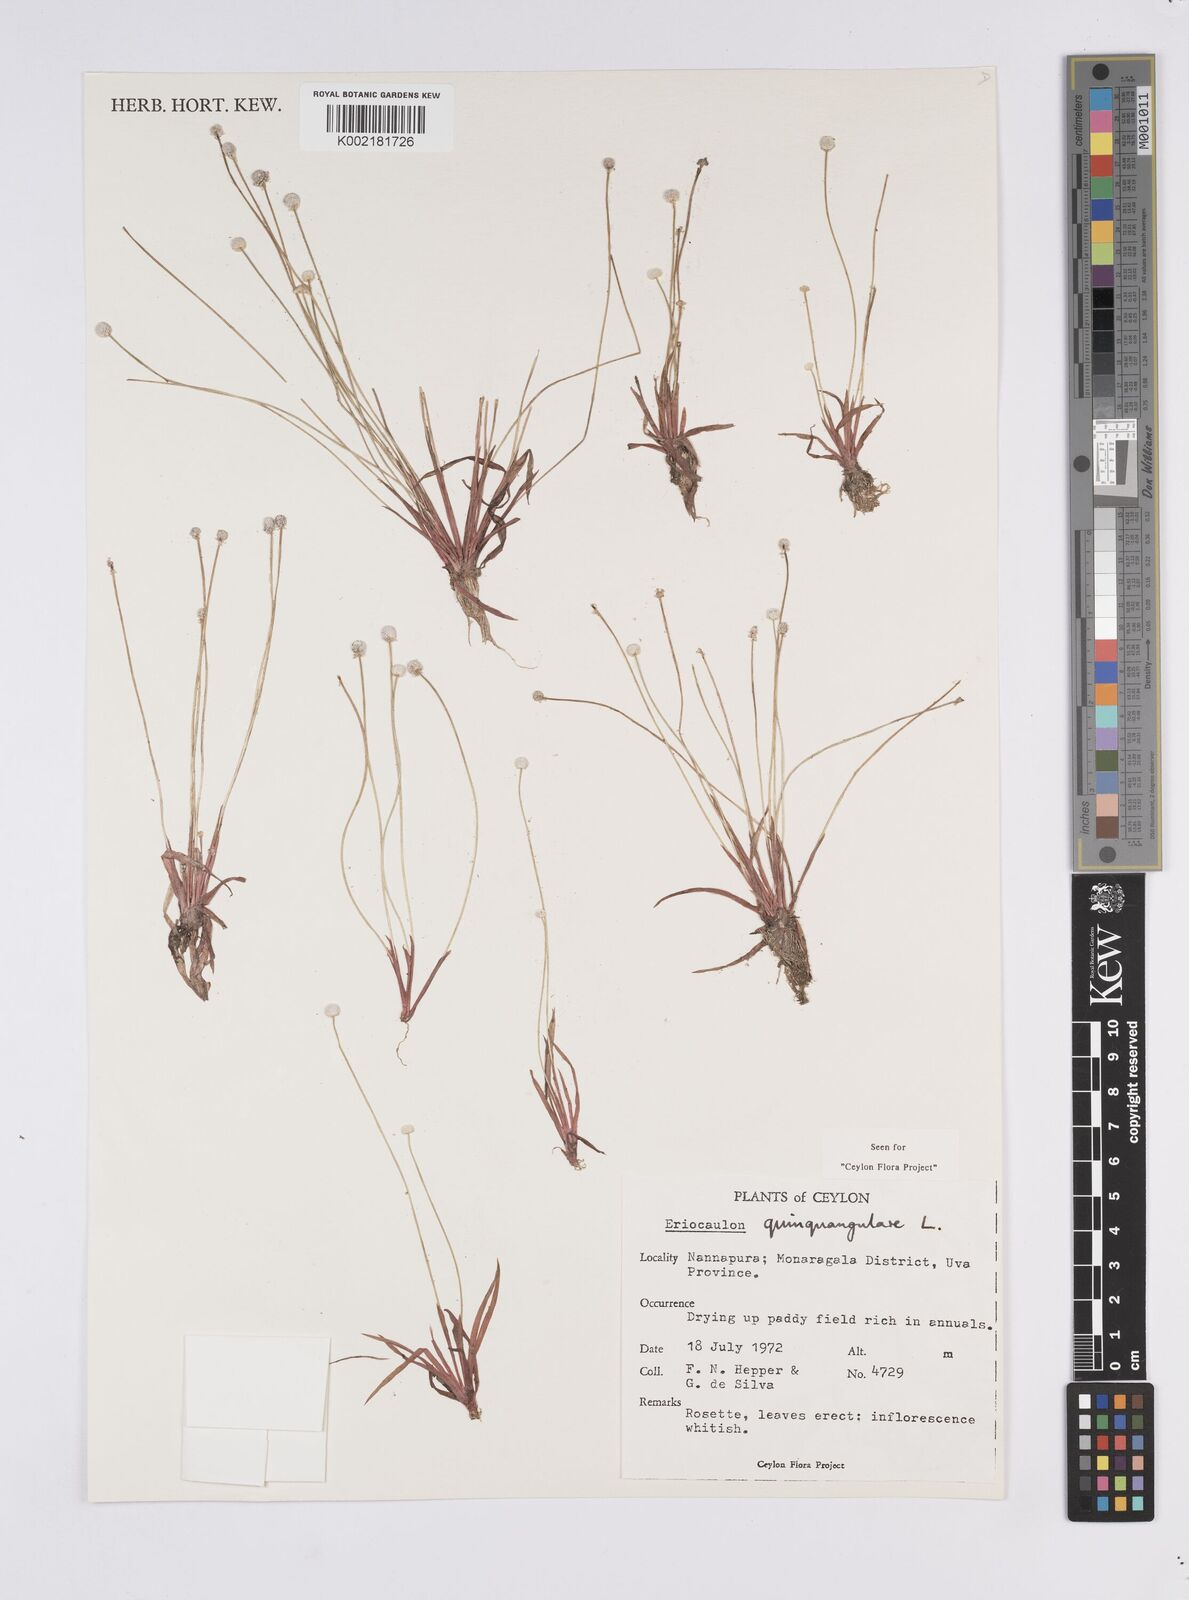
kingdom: Plantae
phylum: Tracheophyta
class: Liliopsida
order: Poales
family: Eriocaulaceae
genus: Eriocaulon
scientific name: Eriocaulon quinquangulare
